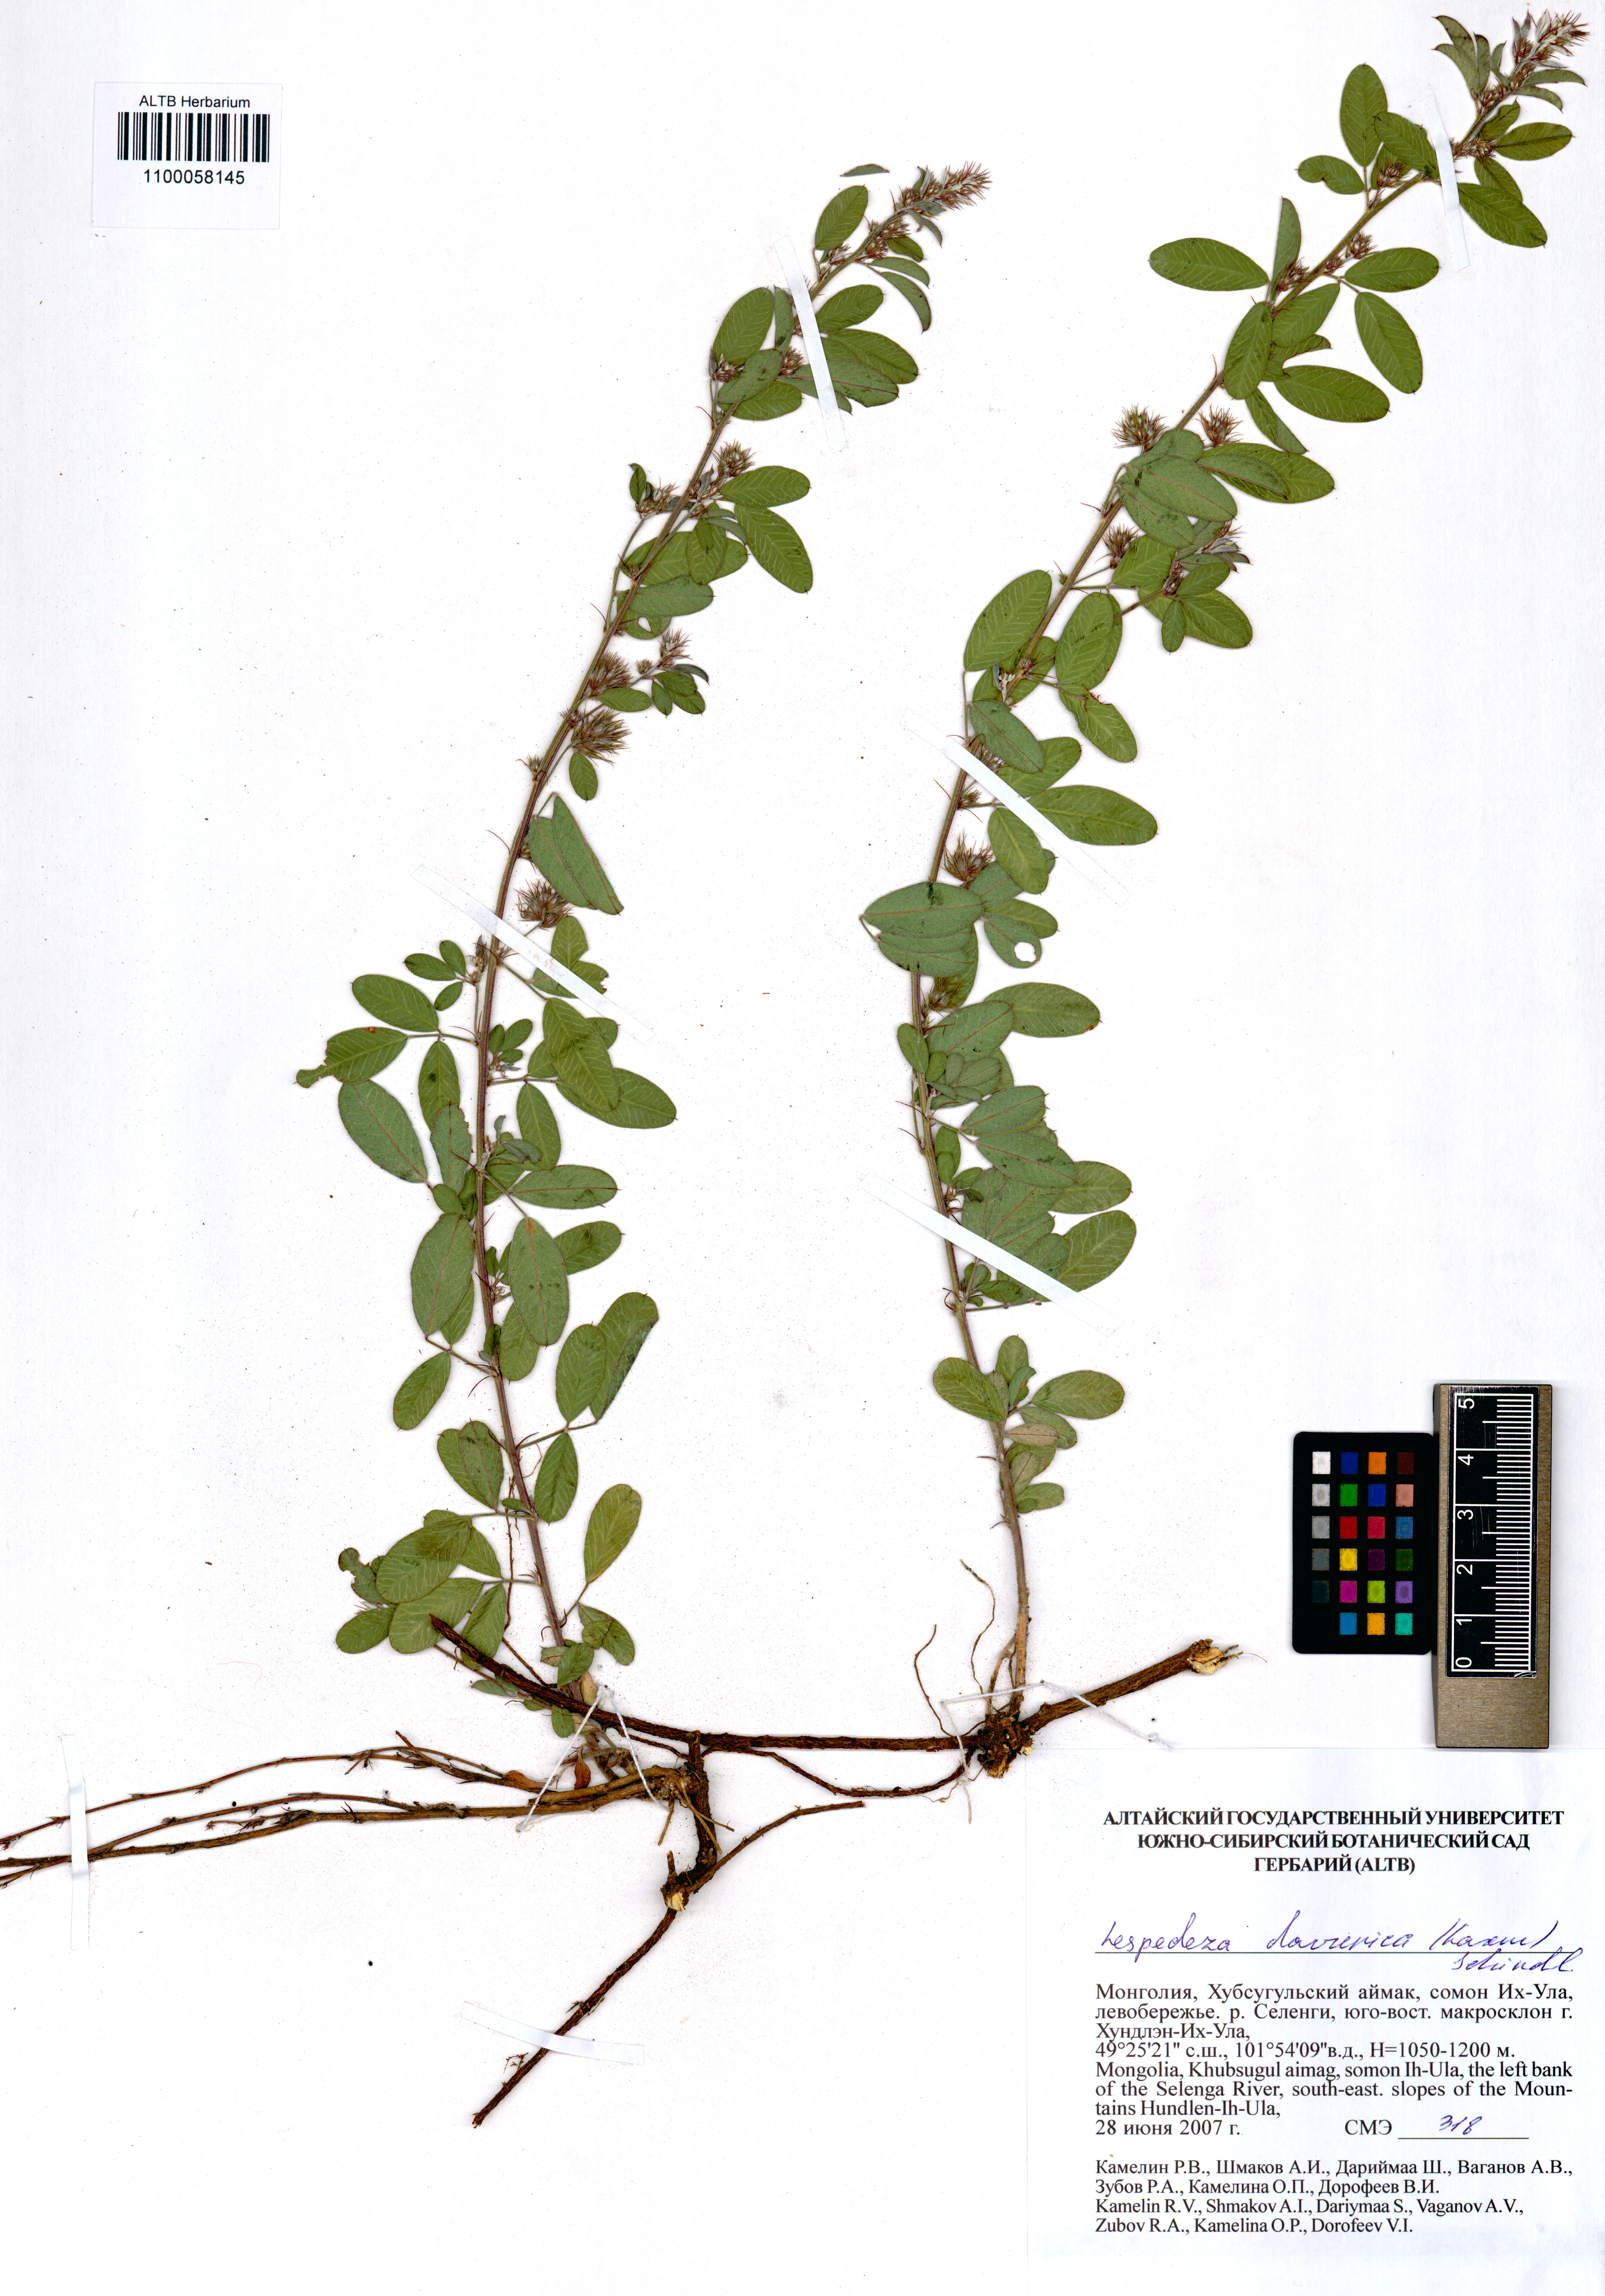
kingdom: Plantae
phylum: Tracheophyta
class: Magnoliopsida
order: Fabales
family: Fabaceae
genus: Lespedeza
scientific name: Lespedeza daurica
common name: Dahurian lespedeza
